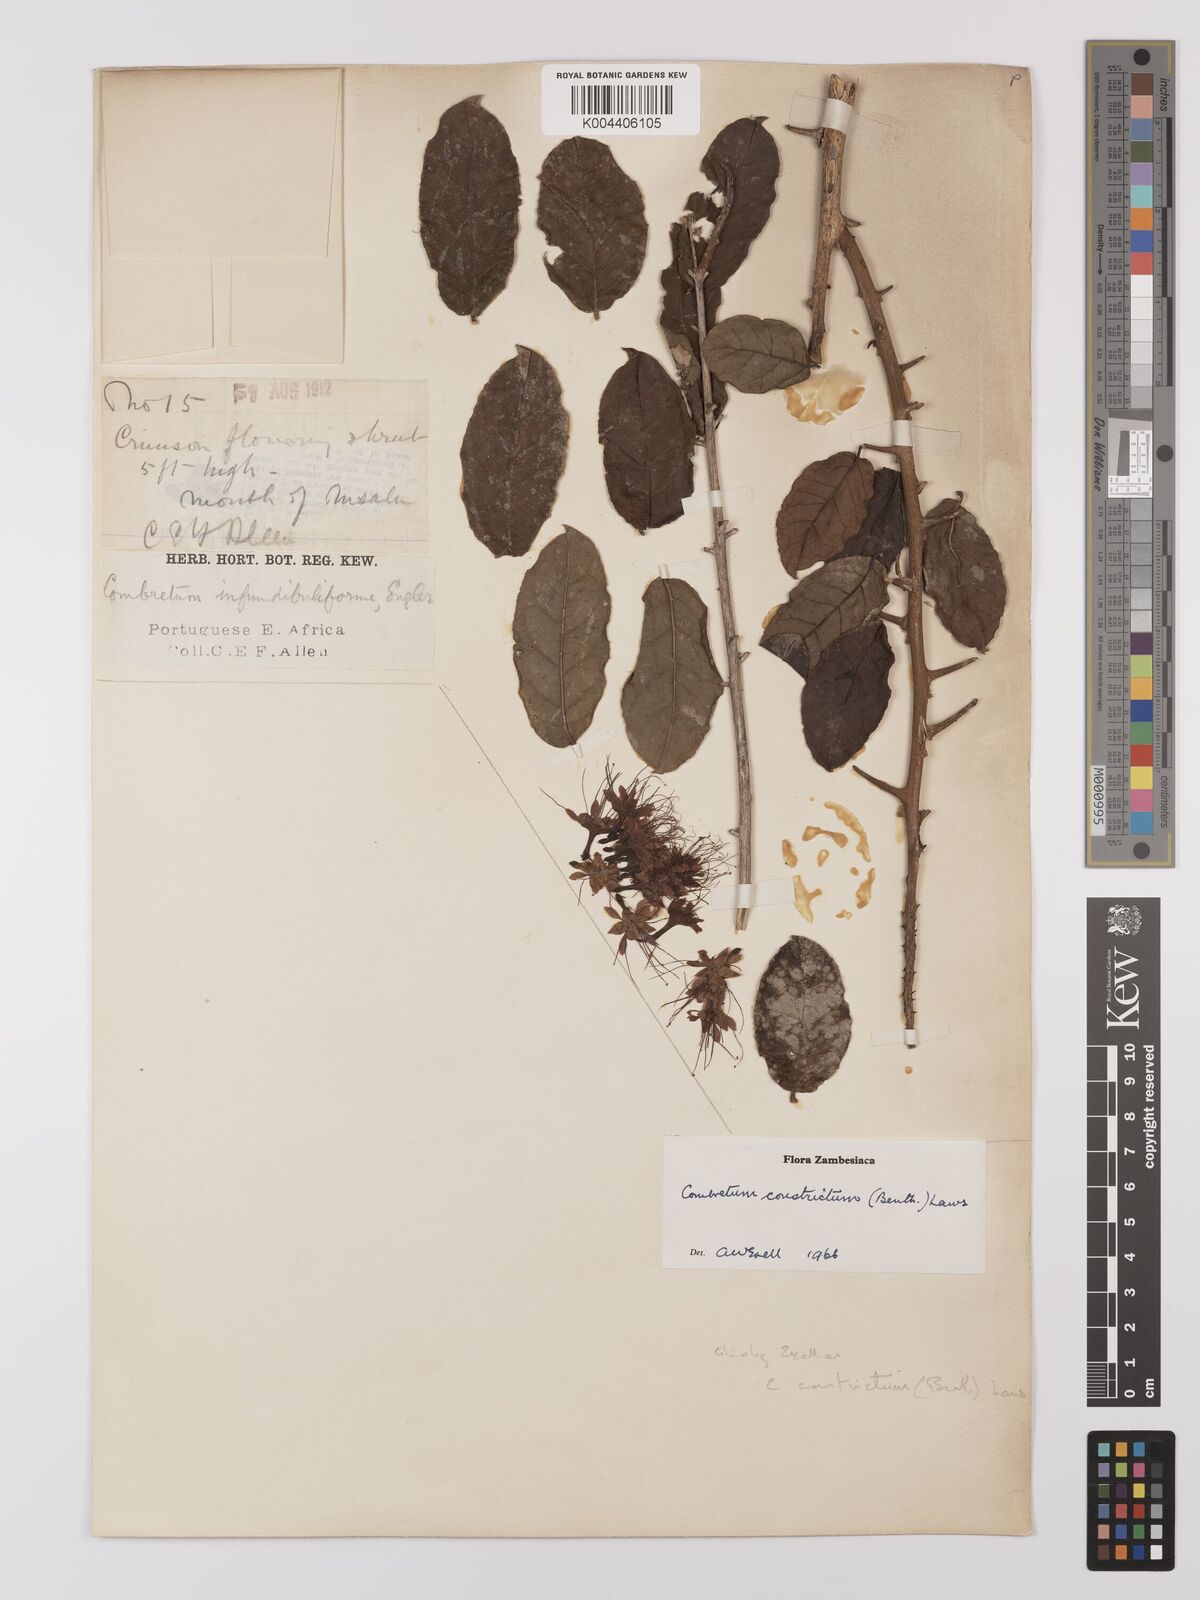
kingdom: Plantae
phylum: Tracheophyta
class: Magnoliopsida
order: Myrtales
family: Combretaceae
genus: Combretum
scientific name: Combretum constrictum
